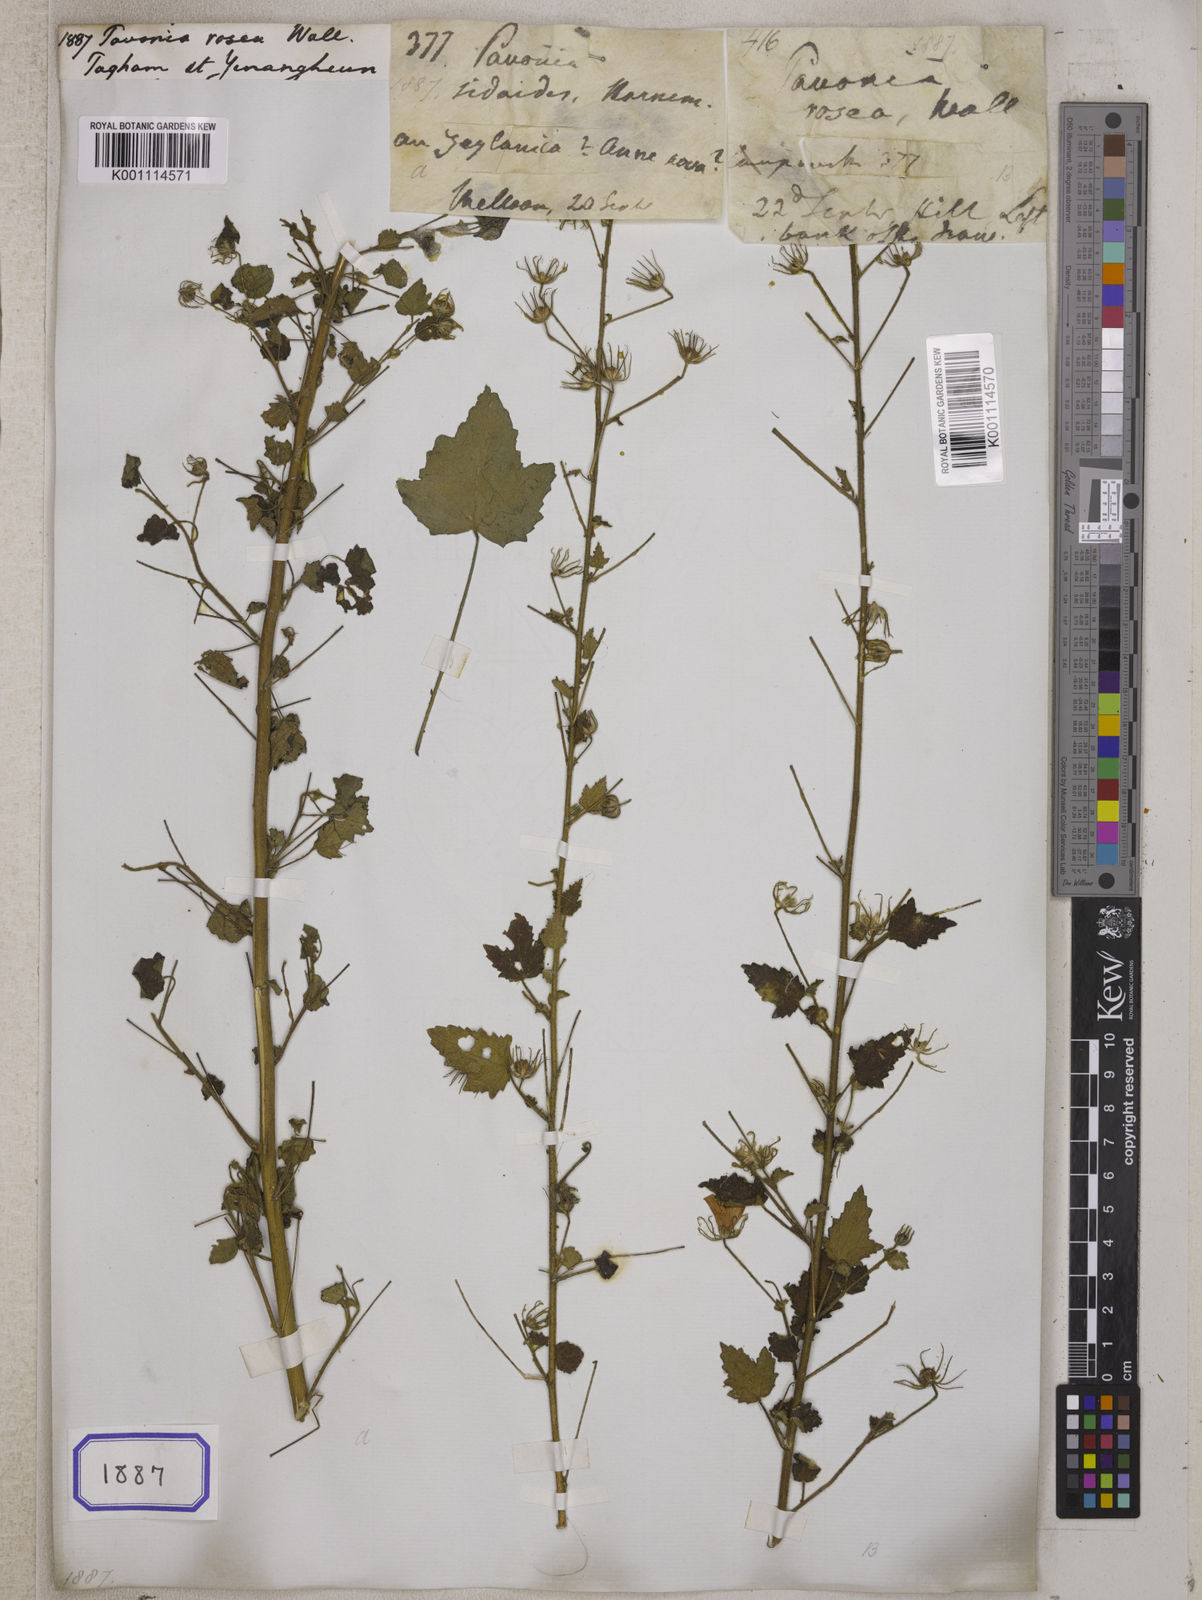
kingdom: Plantae
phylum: Tracheophyta
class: Magnoliopsida
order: Malvales
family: Malvaceae
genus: Pavonia
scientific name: Pavonia
